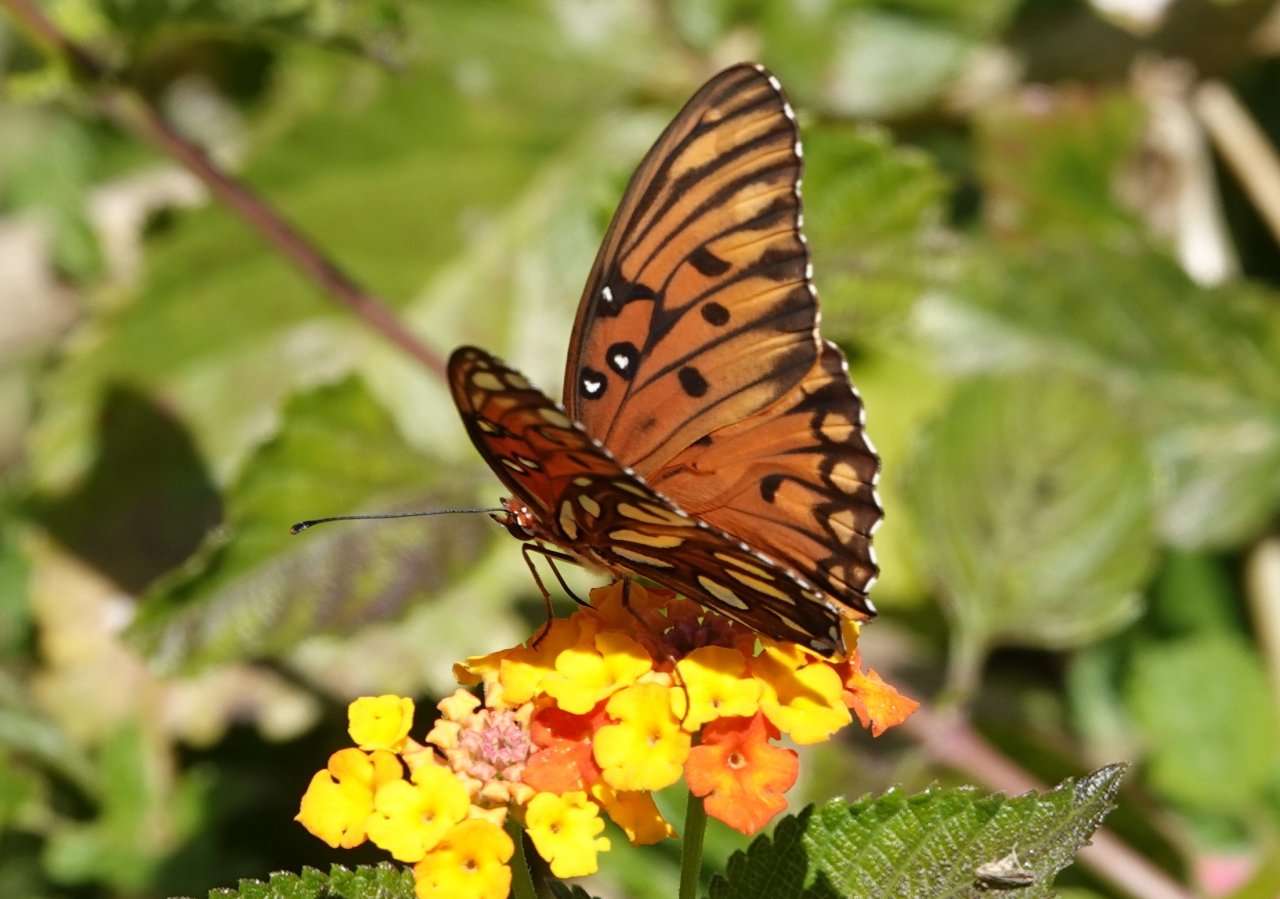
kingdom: Animalia
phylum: Arthropoda
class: Insecta
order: Lepidoptera
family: Nymphalidae
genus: Dione
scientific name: Dione vanillae
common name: Gulf Fritillary
